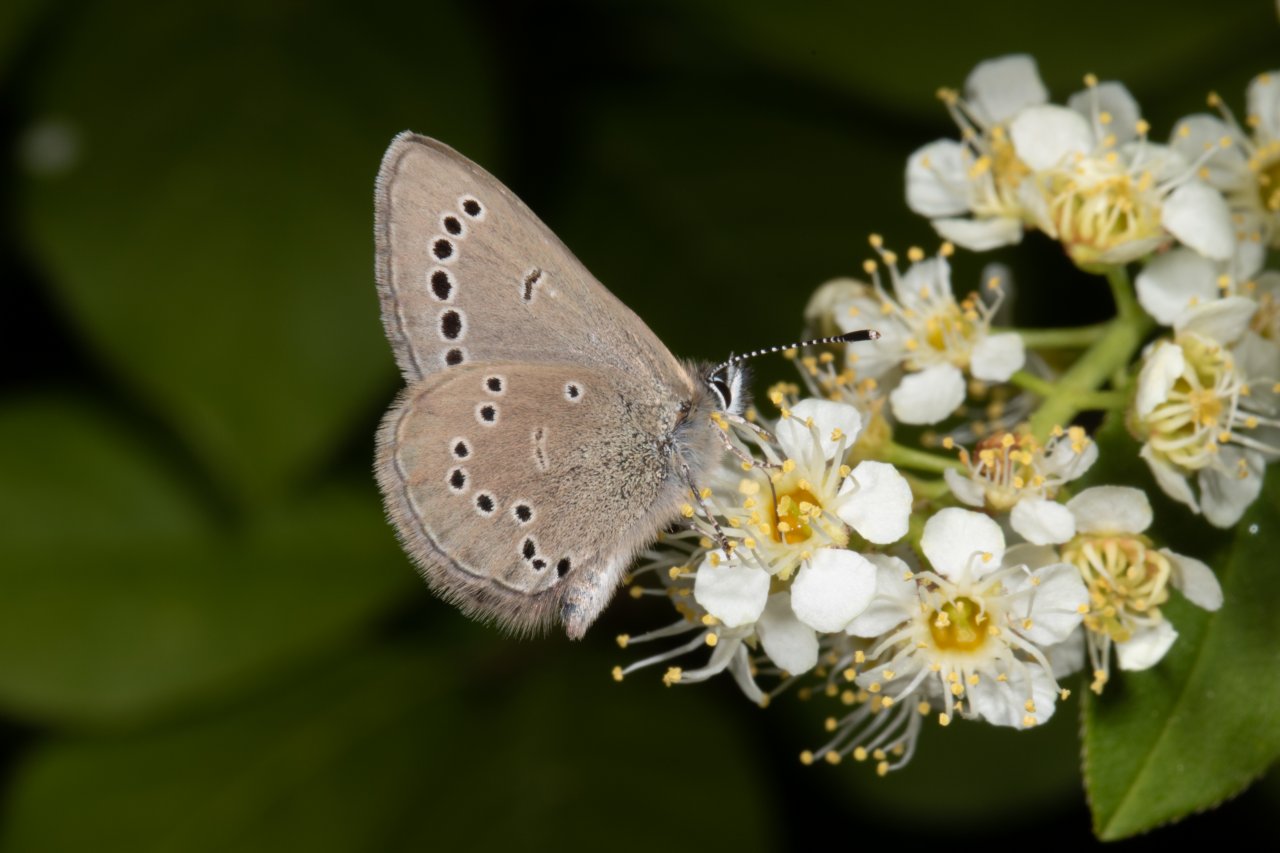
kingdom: Animalia
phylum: Arthropoda
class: Insecta
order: Lepidoptera
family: Lycaenidae
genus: Glaucopsyche
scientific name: Glaucopsyche lygdamus
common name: Silvery Blue
